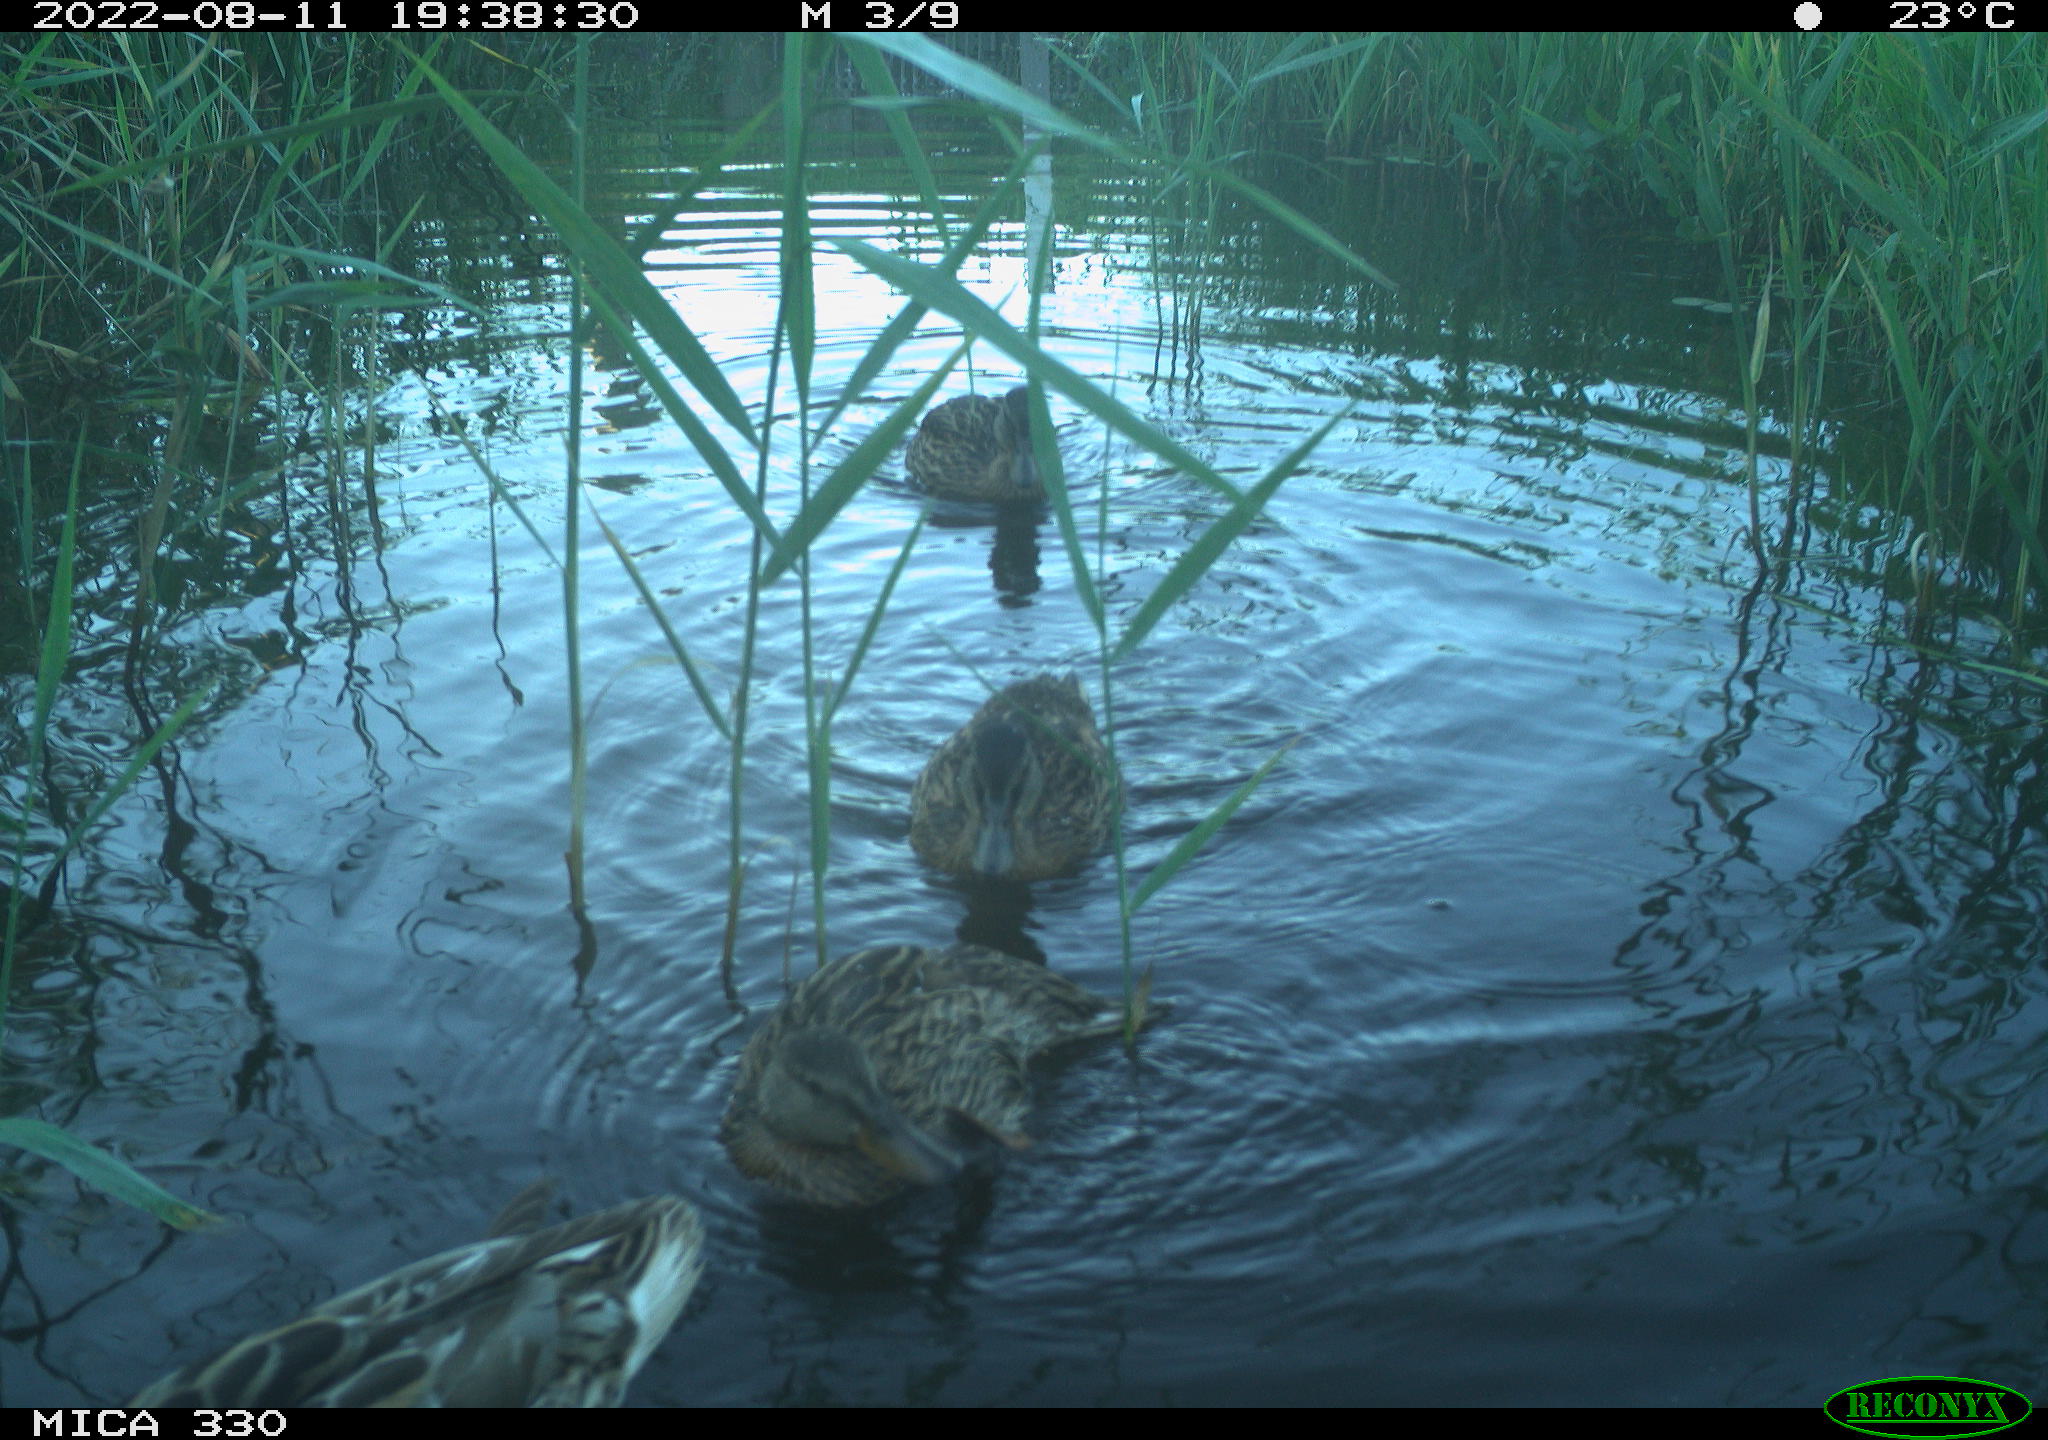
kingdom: Animalia
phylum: Chordata
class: Aves
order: Anseriformes
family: Anatidae
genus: Mareca
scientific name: Mareca strepera
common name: Gadwall
